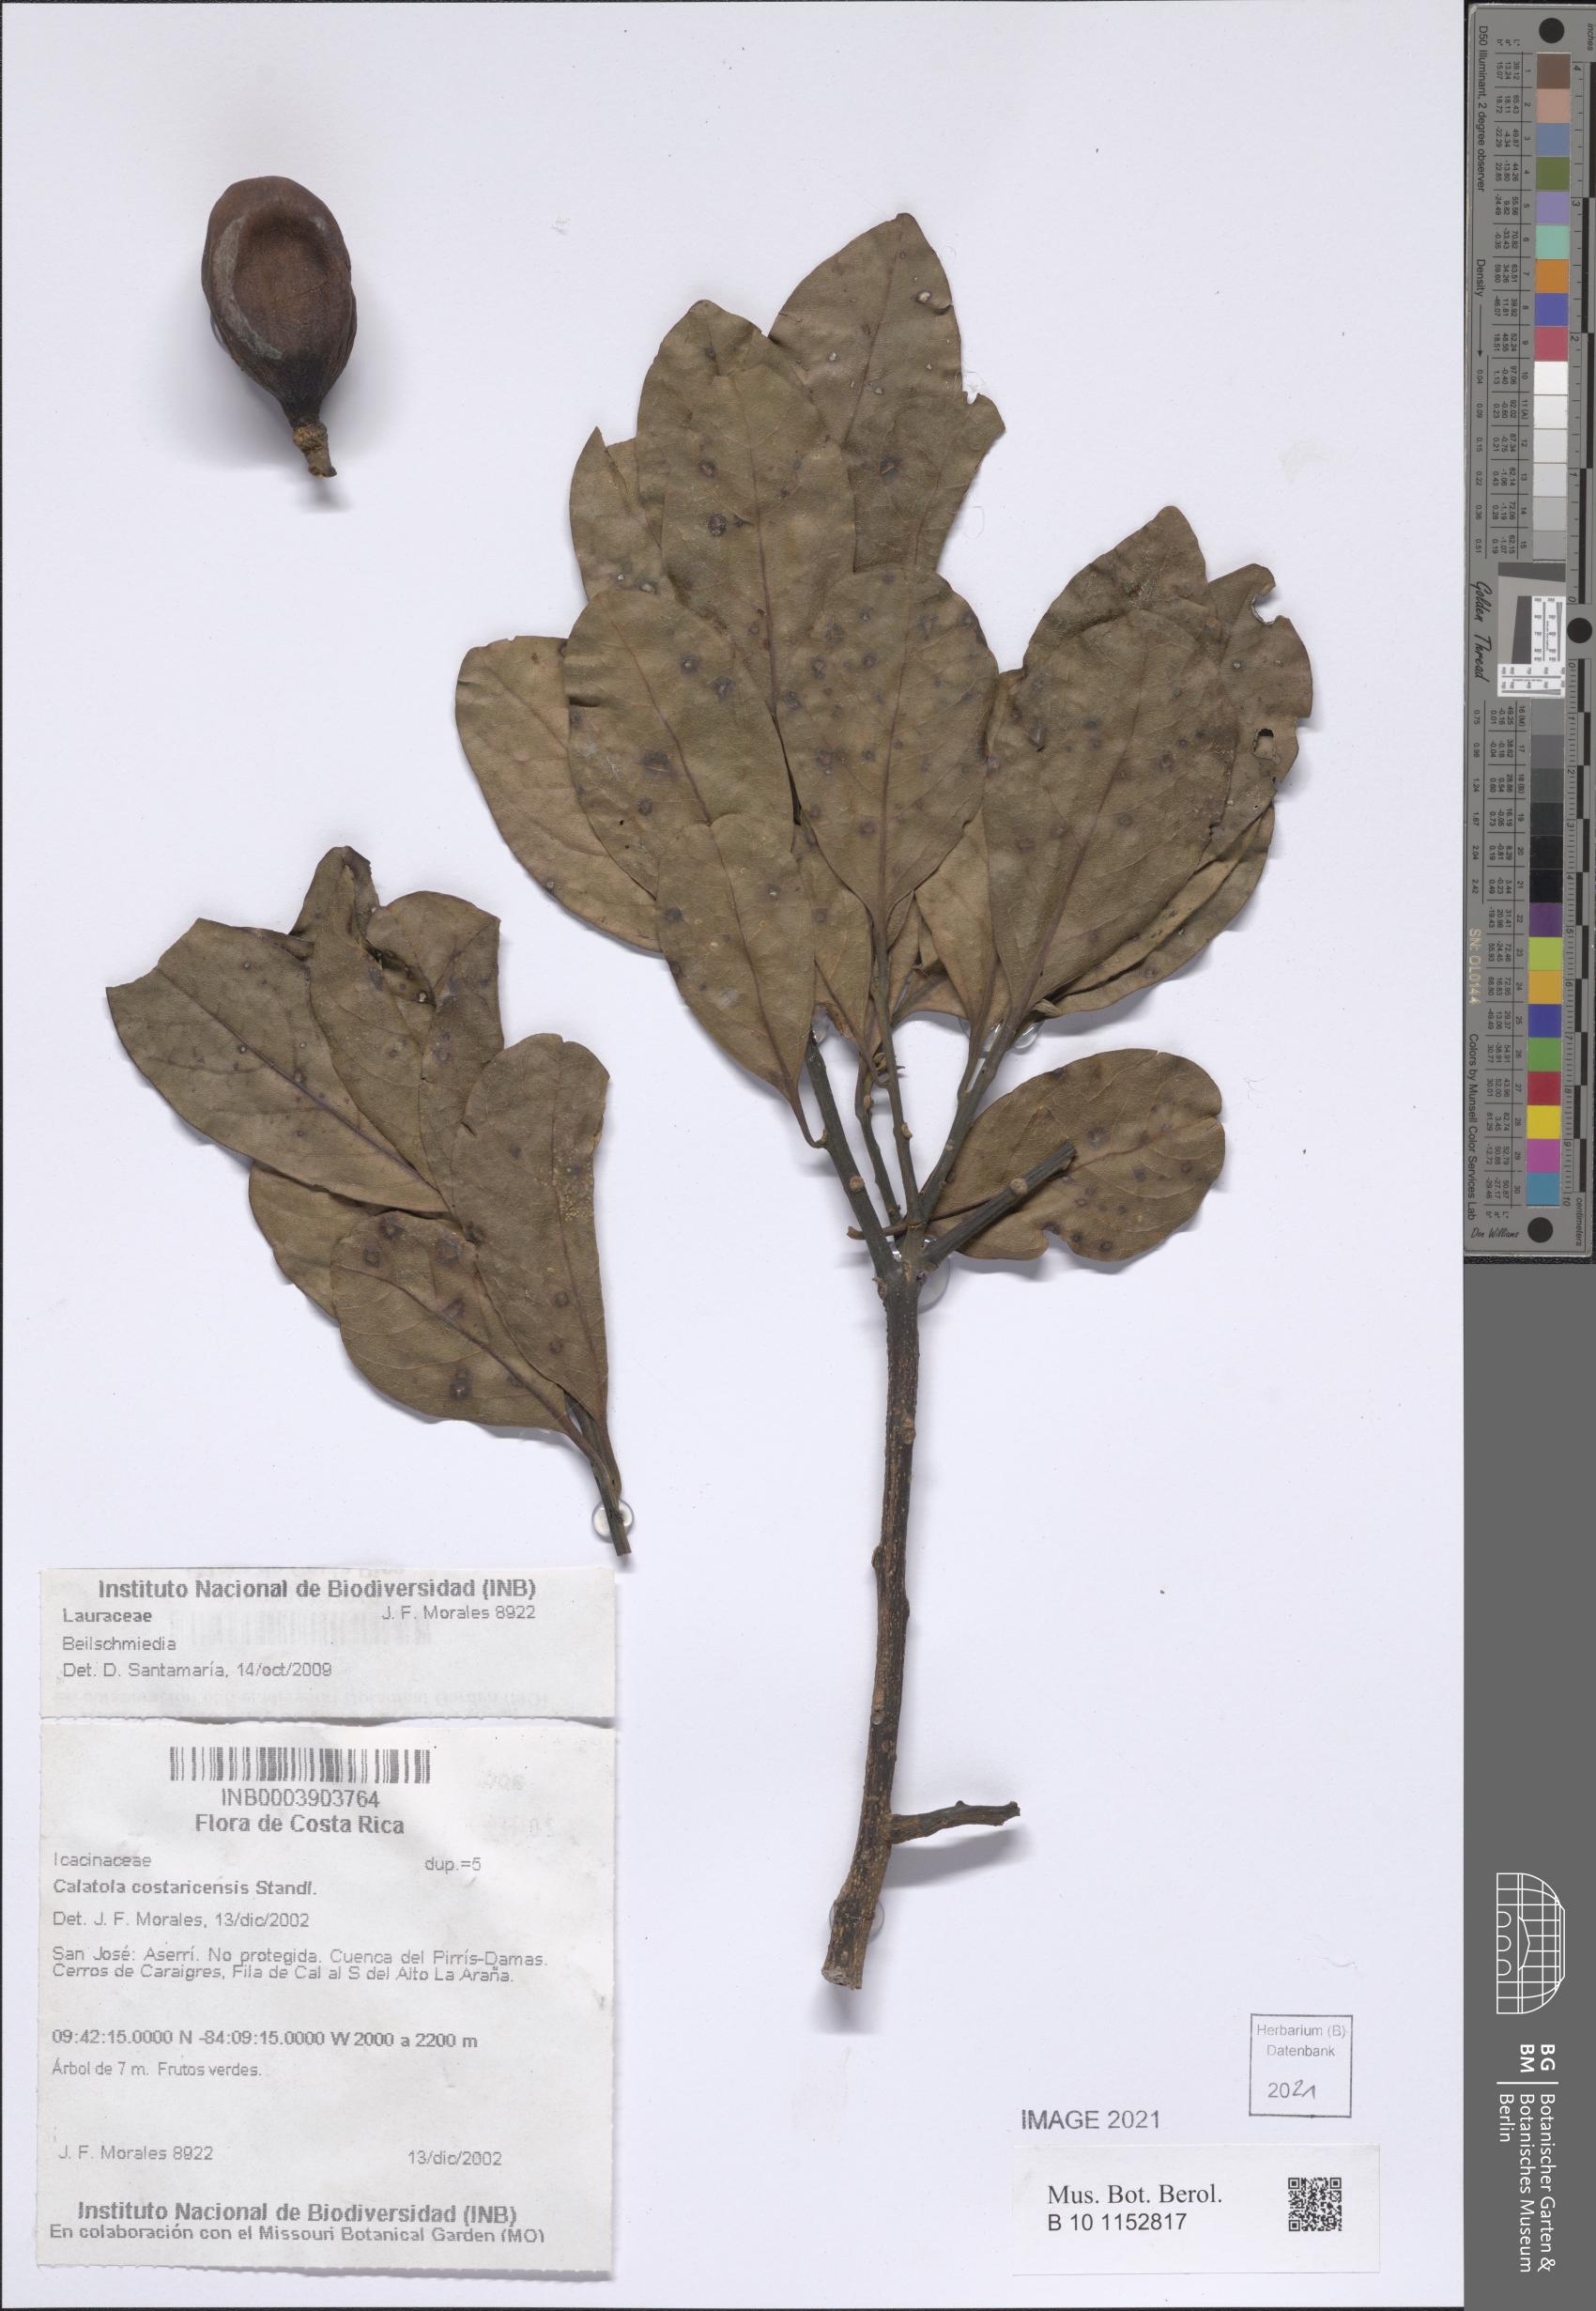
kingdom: Plantae
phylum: Tracheophyta
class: Magnoliopsida
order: Laurales
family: Lauraceae
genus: Beilschmiedia
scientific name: Beilschmiedia
